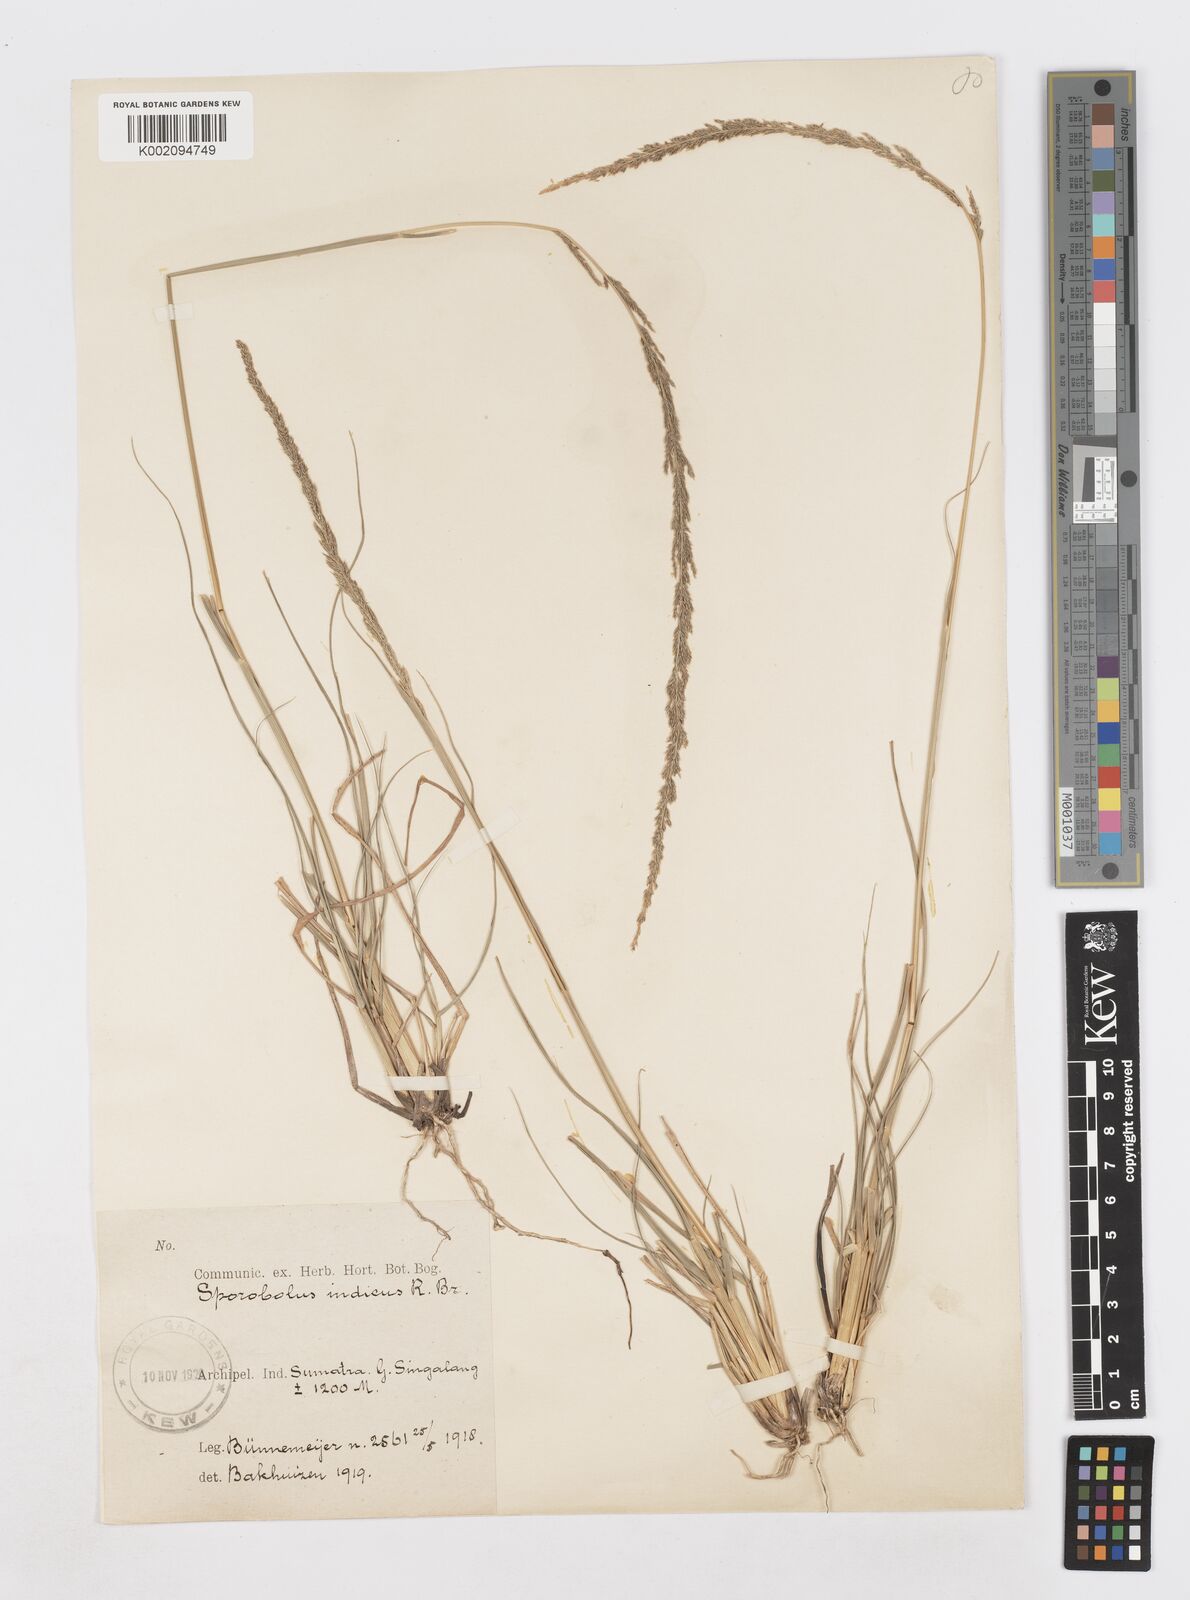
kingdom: Plantae
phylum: Tracheophyta
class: Liliopsida
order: Poales
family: Poaceae
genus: Sporobolus
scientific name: Sporobolus fertilis
